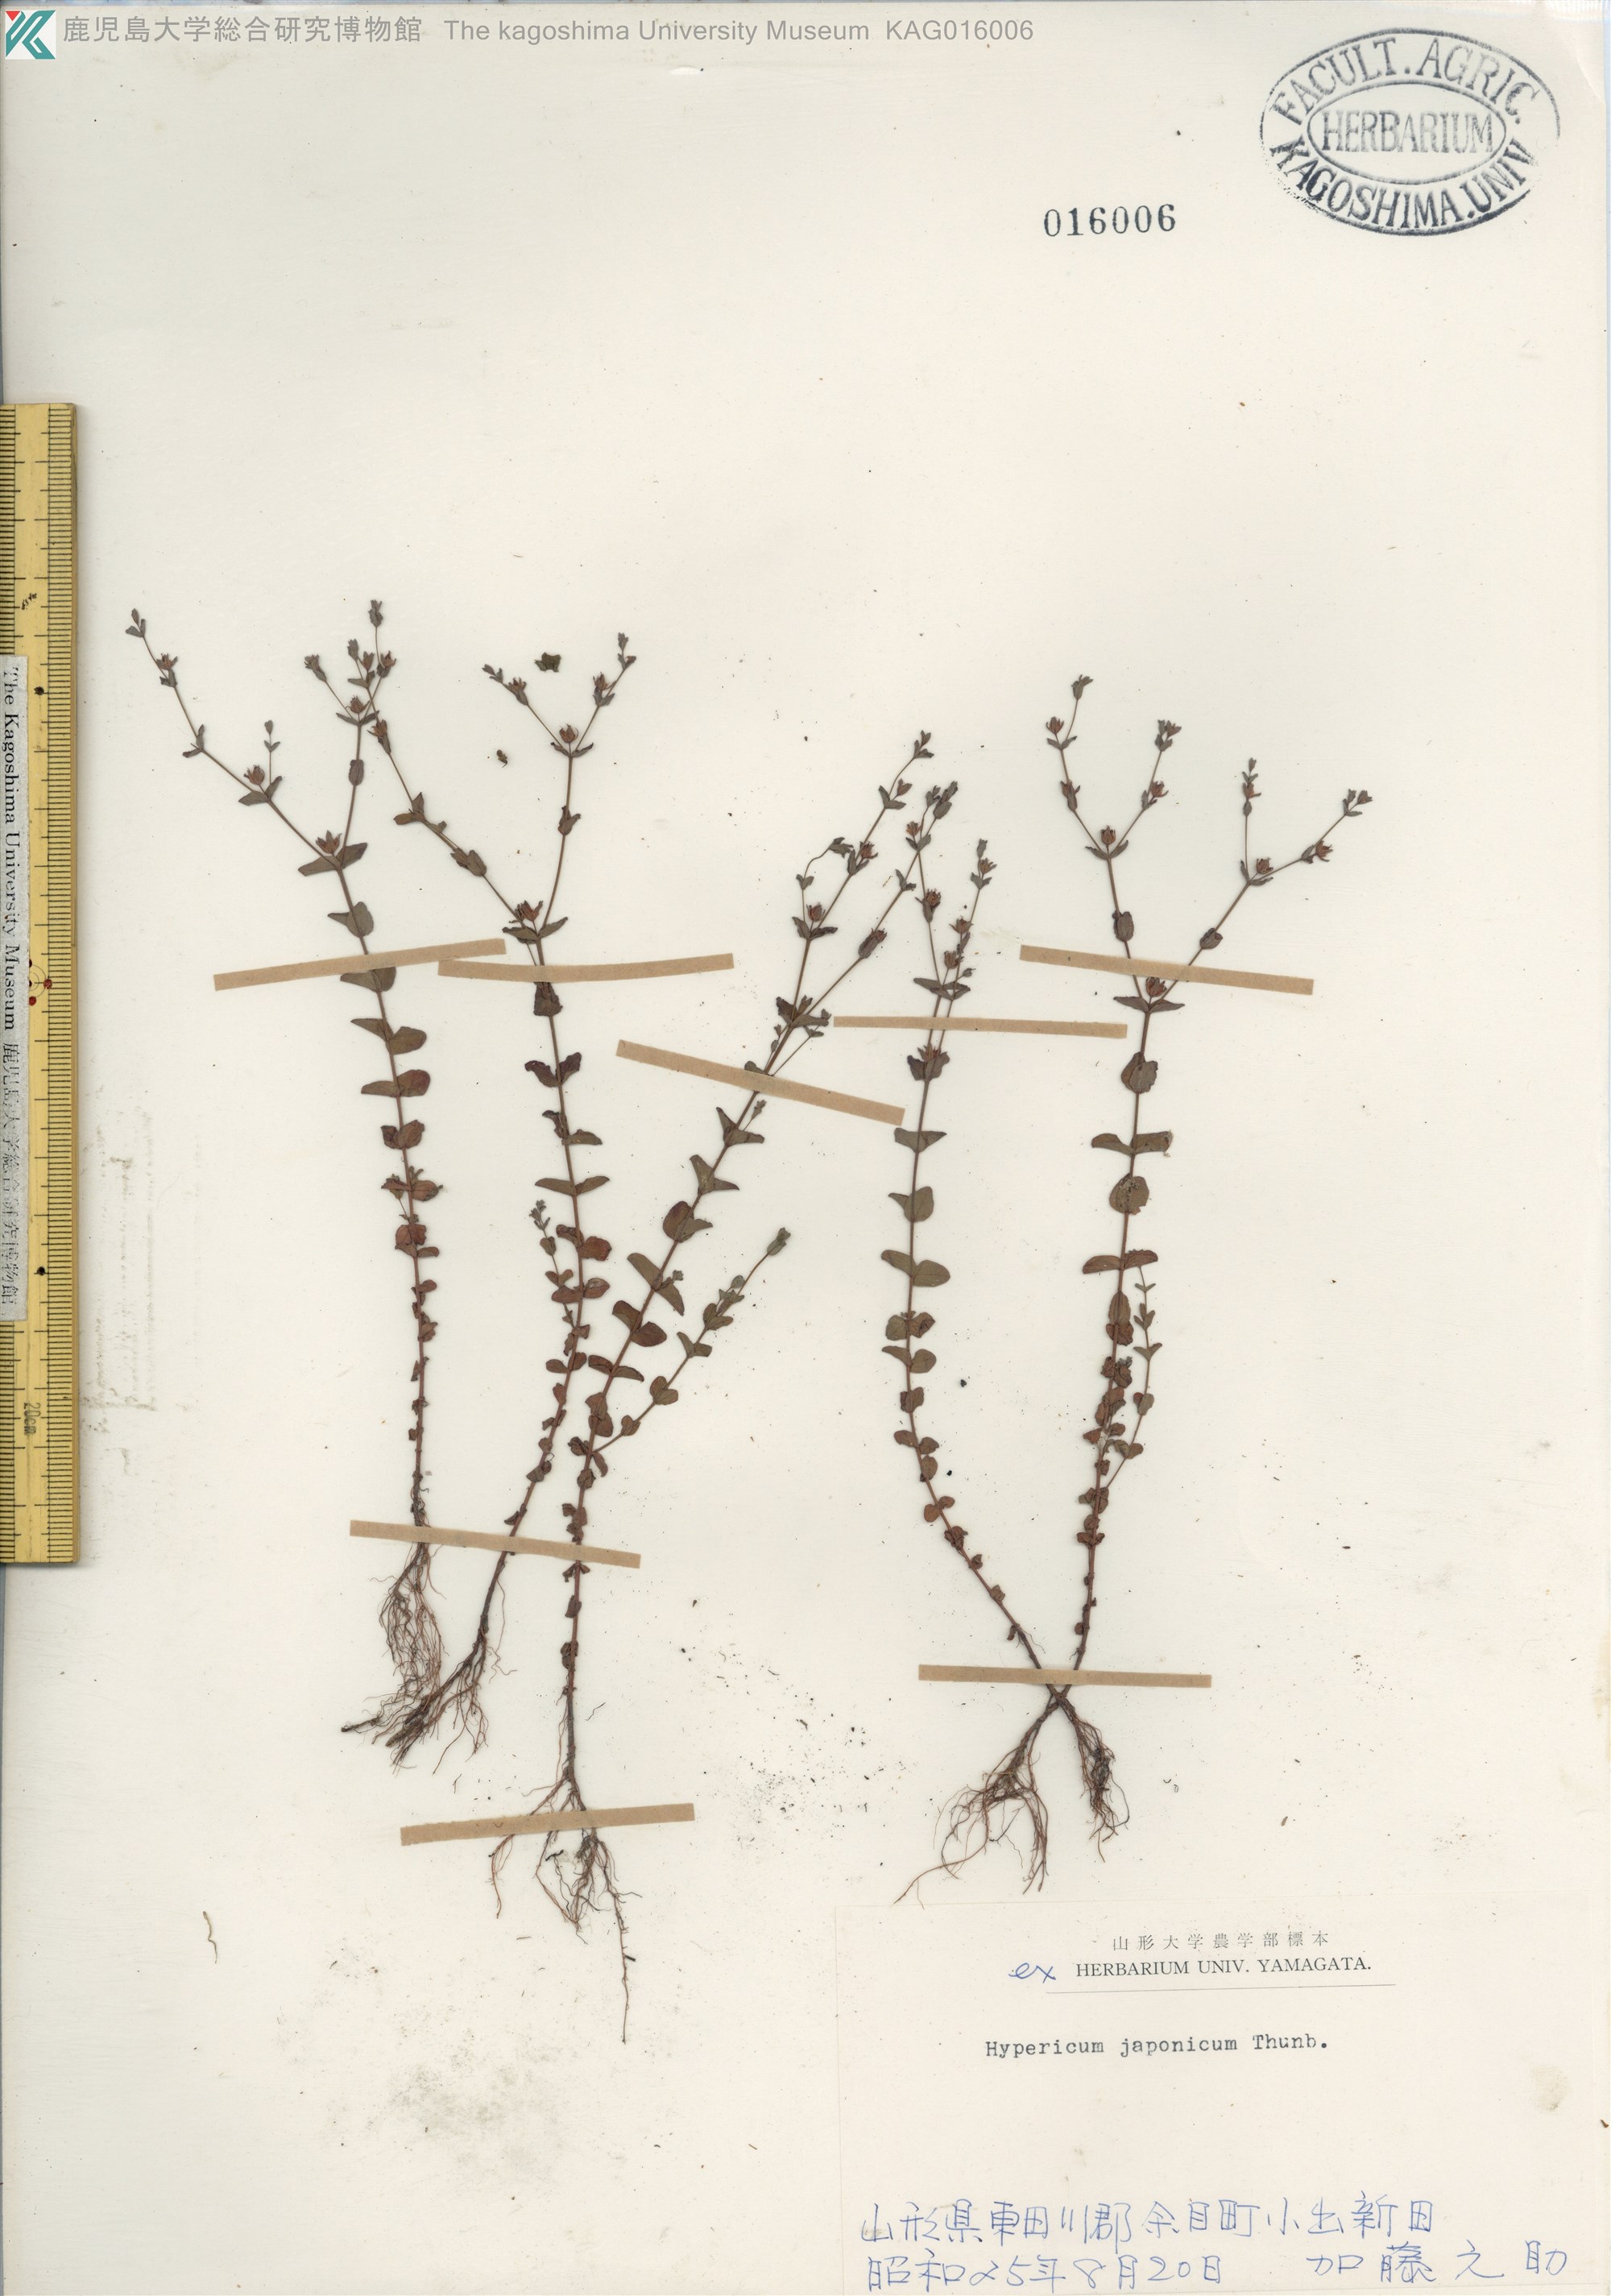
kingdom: Plantae
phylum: Tracheophyta
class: Magnoliopsida
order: Malpighiales
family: Hypericaceae
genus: Hypericum
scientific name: Hypericum japonicum
